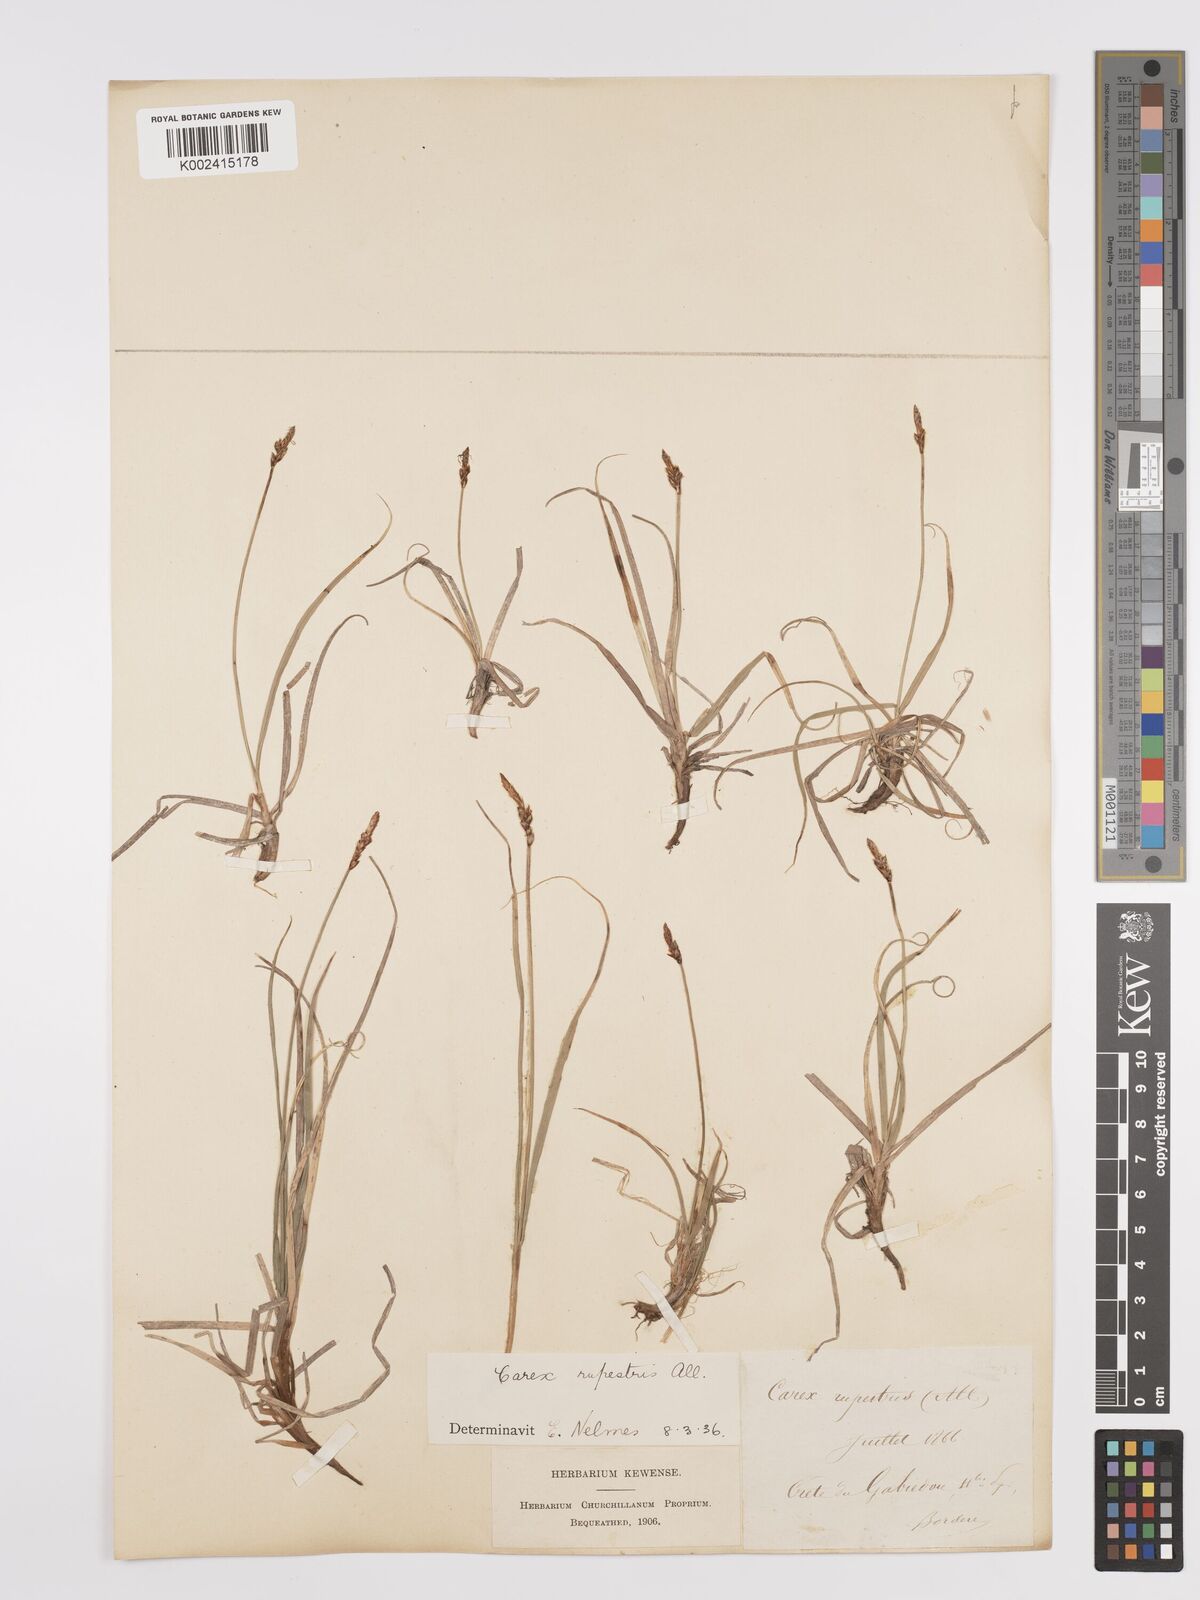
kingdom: Plantae
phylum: Tracheophyta
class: Liliopsida
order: Poales
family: Cyperaceae
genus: Carex
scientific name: Carex rupestris
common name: Rock sedge
